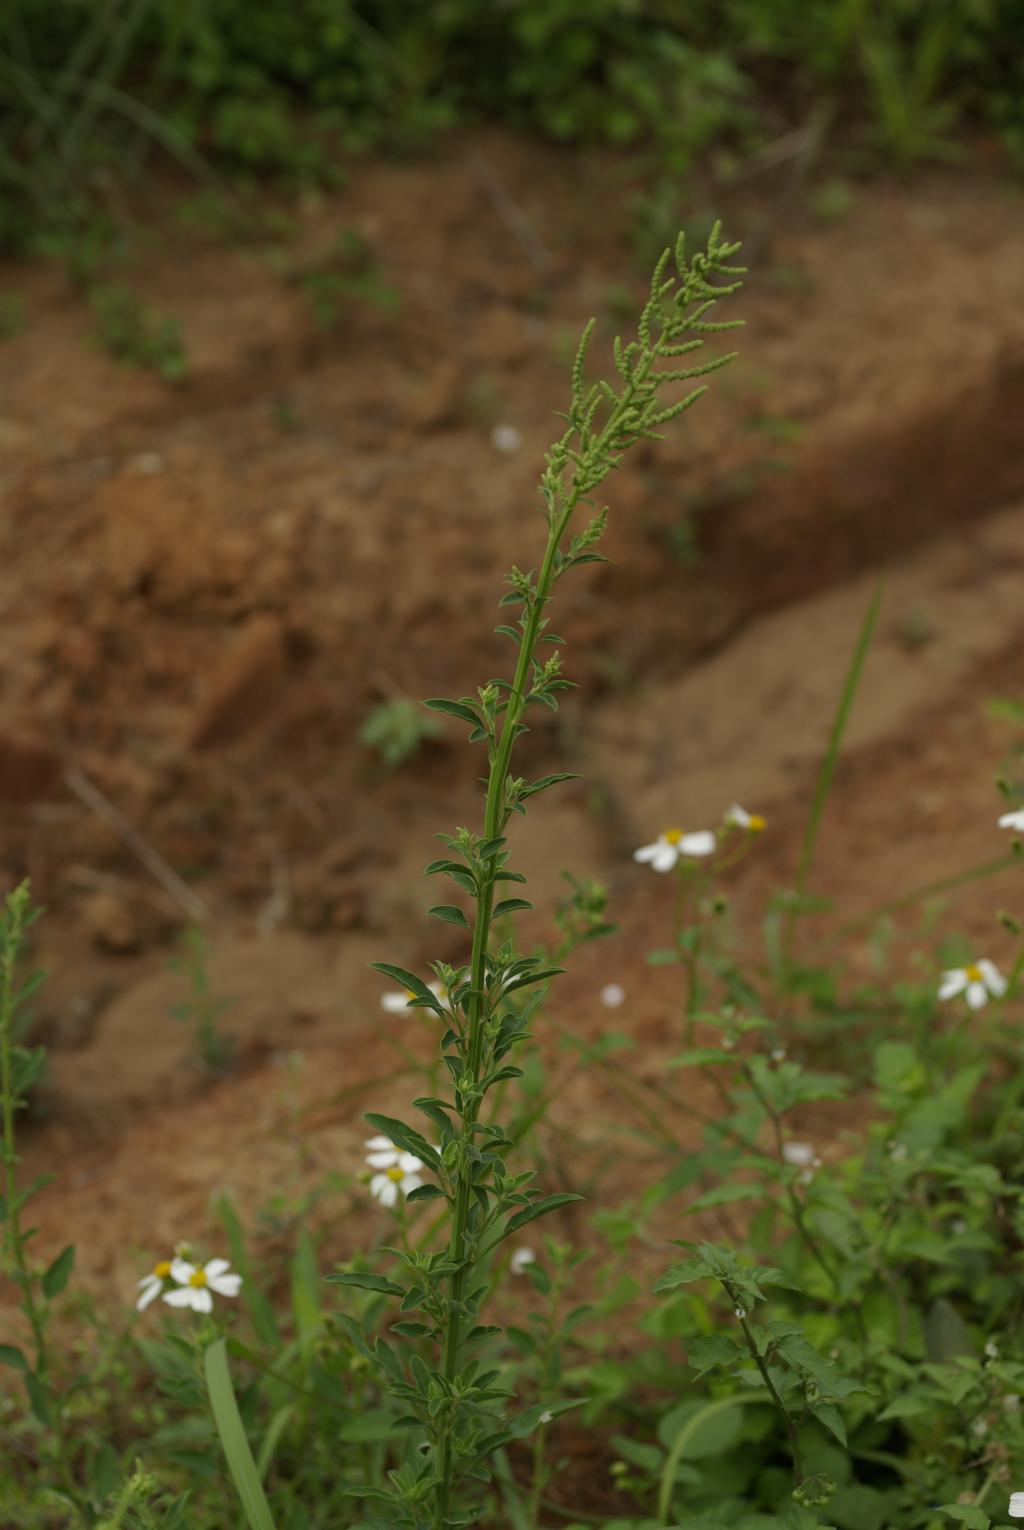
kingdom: Plantae
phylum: Tracheophyta
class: Magnoliopsida
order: Caryophyllales
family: Amaranthaceae
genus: Chenopodium
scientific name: Chenopodium acuminatum
